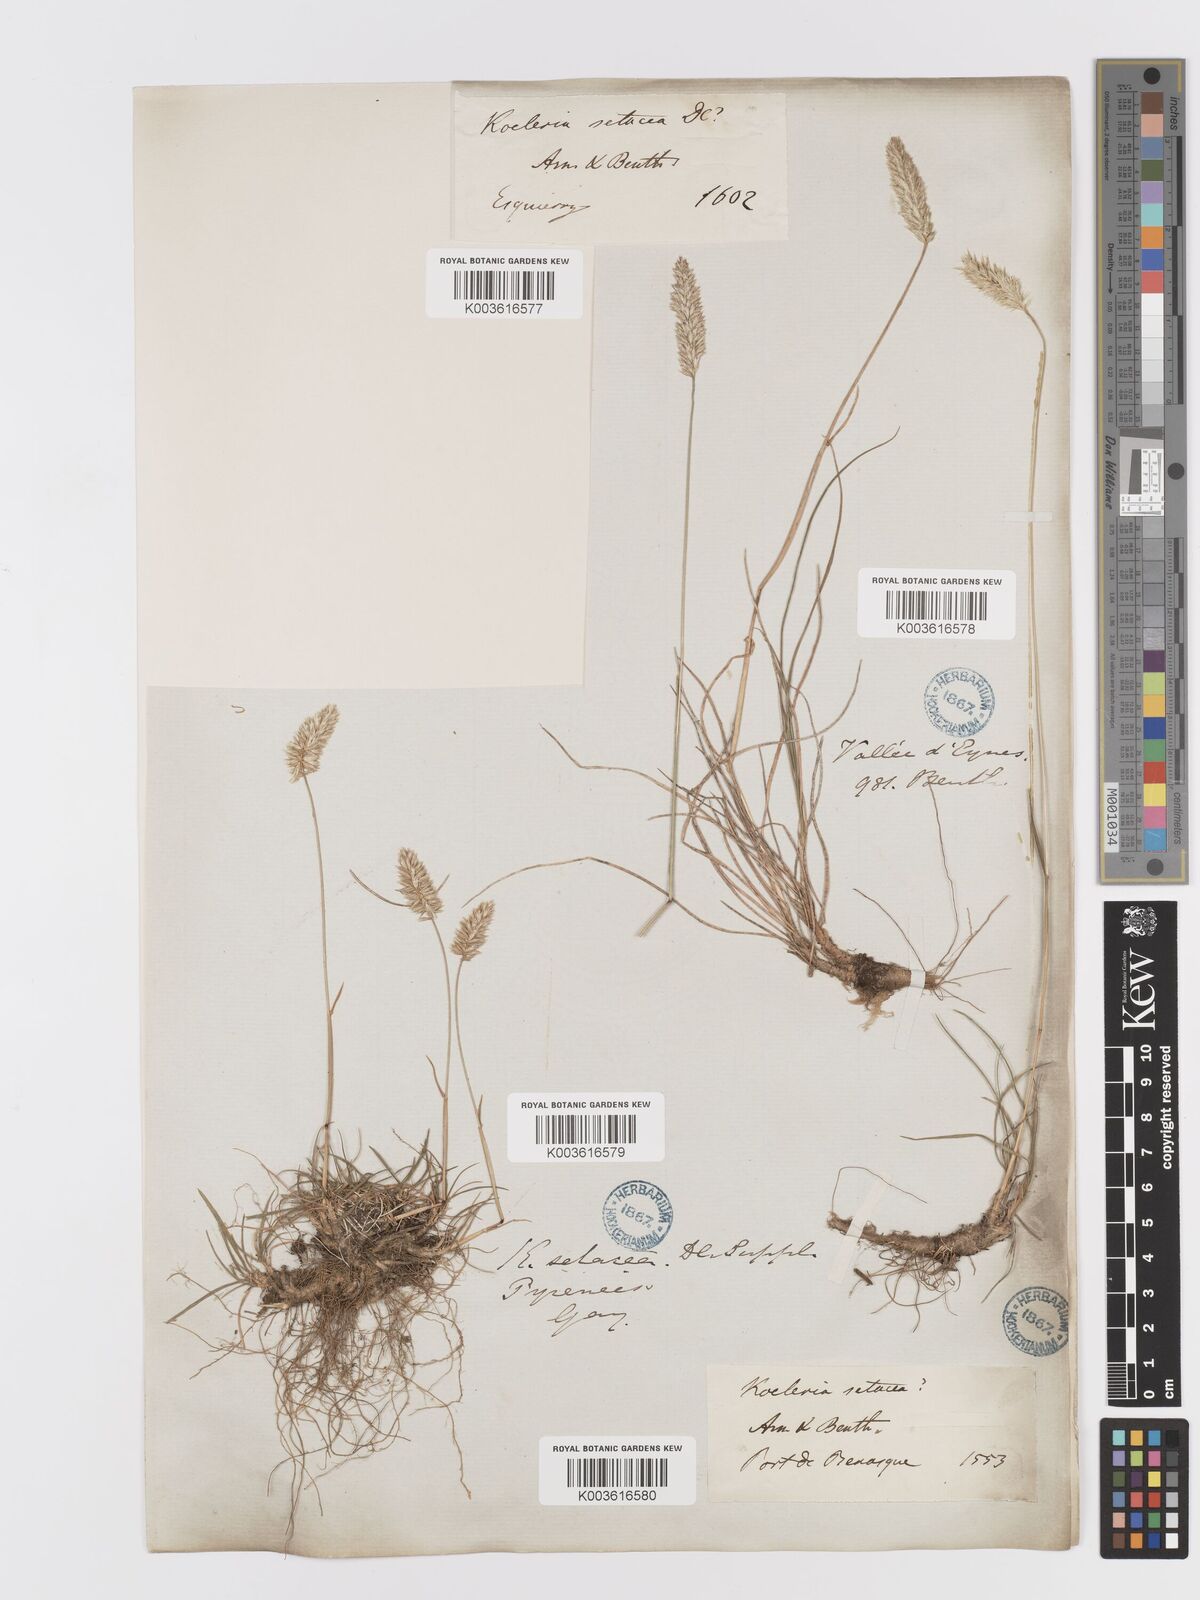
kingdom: Plantae
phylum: Tracheophyta
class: Liliopsida
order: Poales
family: Poaceae
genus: Koeleria
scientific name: Koeleria vallesiana
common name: Somerset hair-grass
